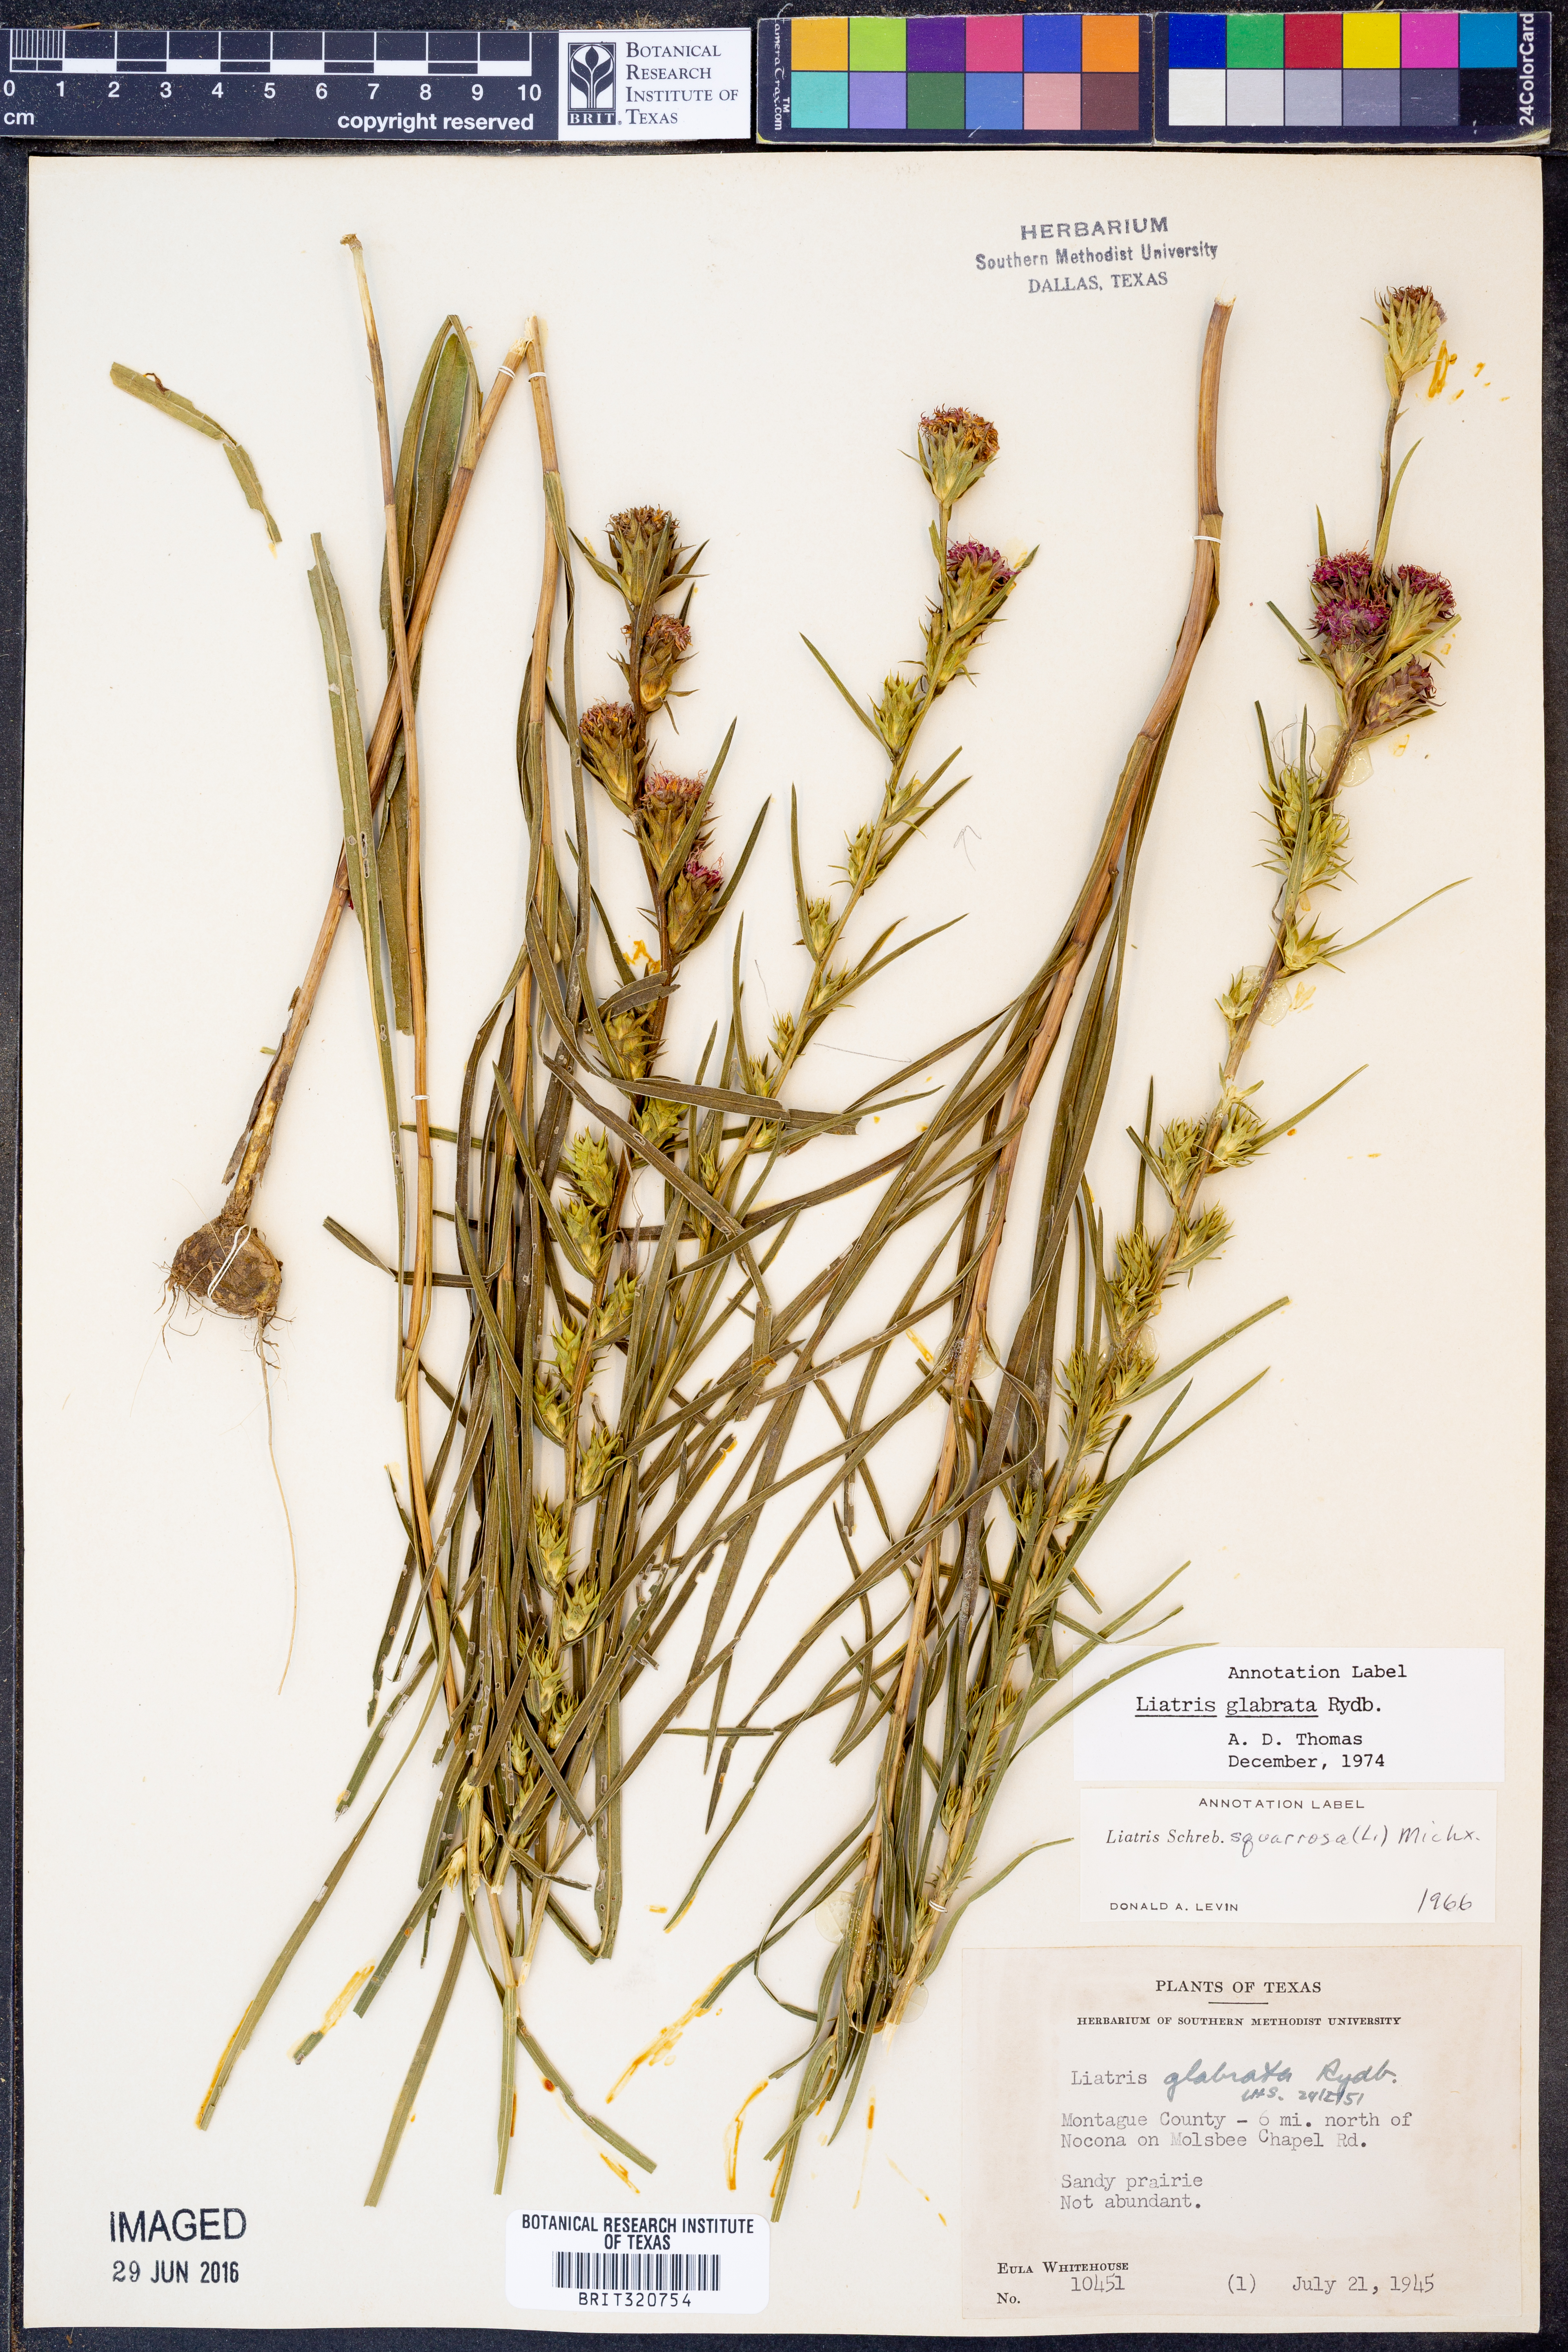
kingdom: Plantae
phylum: Tracheophyta
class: Magnoliopsida
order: Asterales
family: Asteraceae
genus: Liatris
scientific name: Liatris spicata
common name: Florist gayfeather
